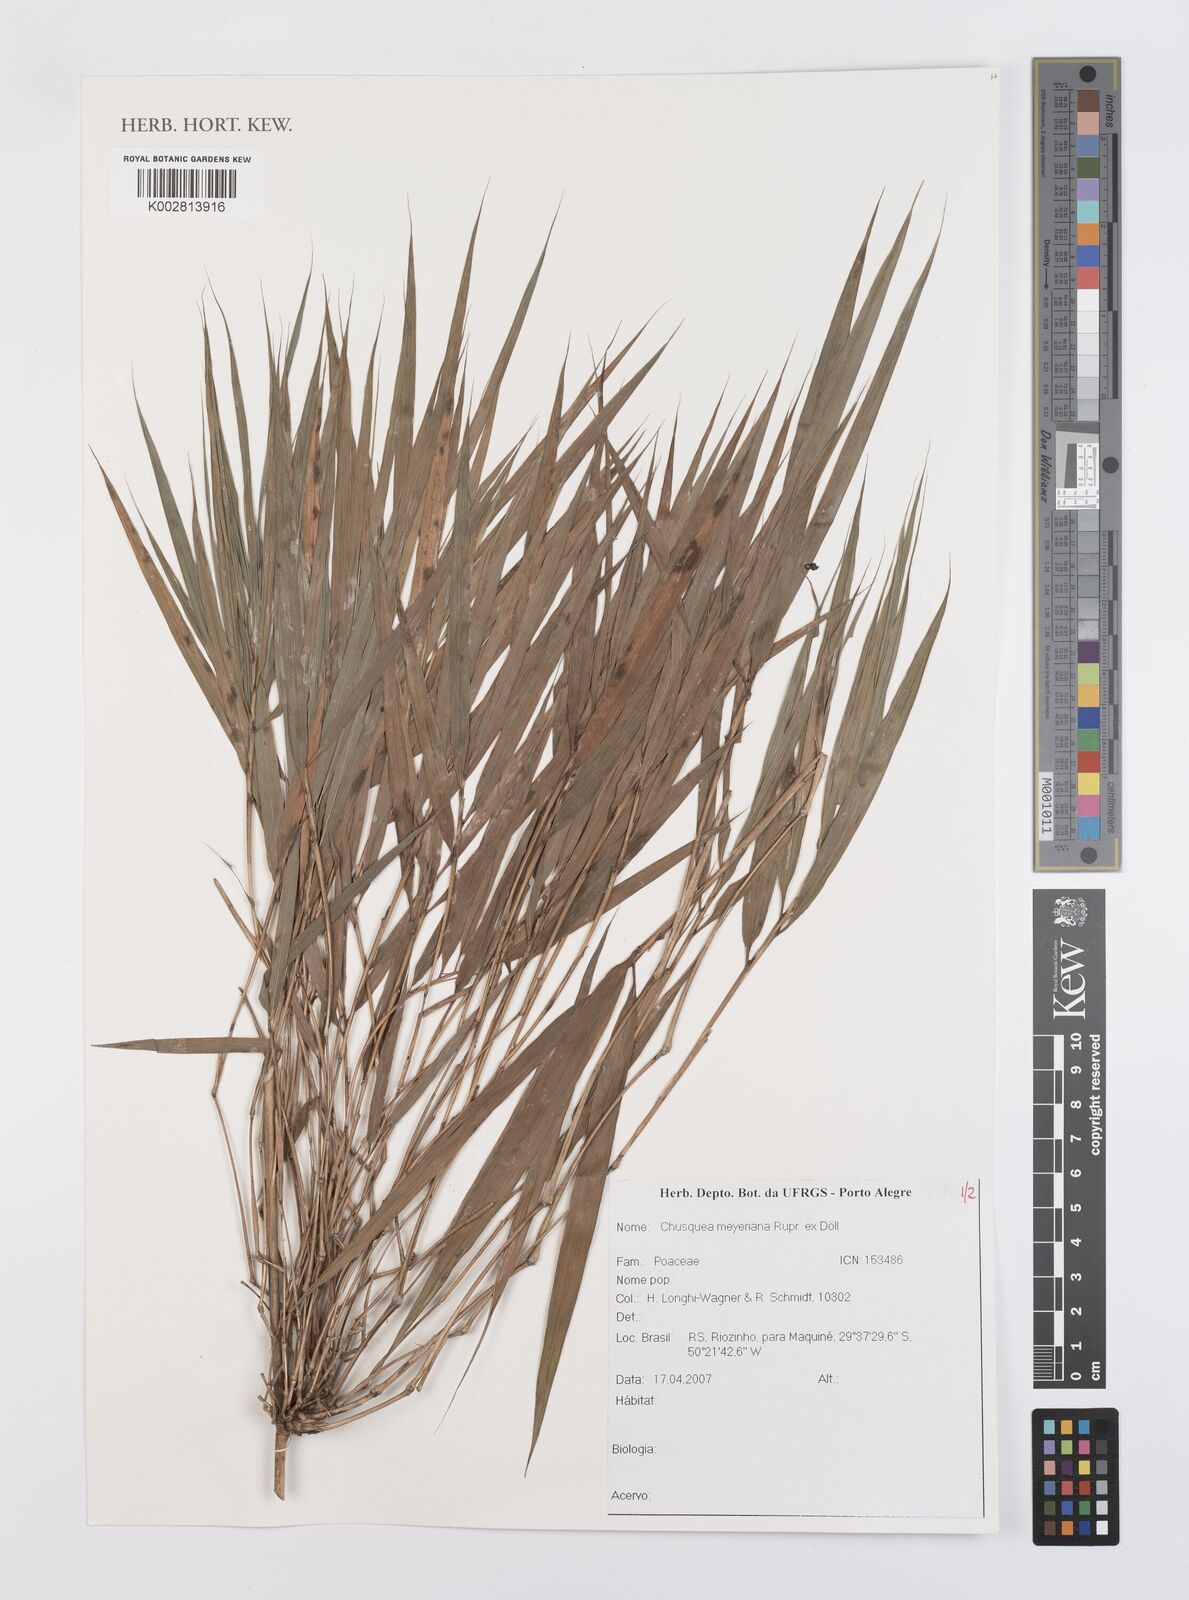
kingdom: Plantae
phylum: Tracheophyta
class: Liliopsida
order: Poales
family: Poaceae
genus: Chusquea
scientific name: Chusquea meyeriana
